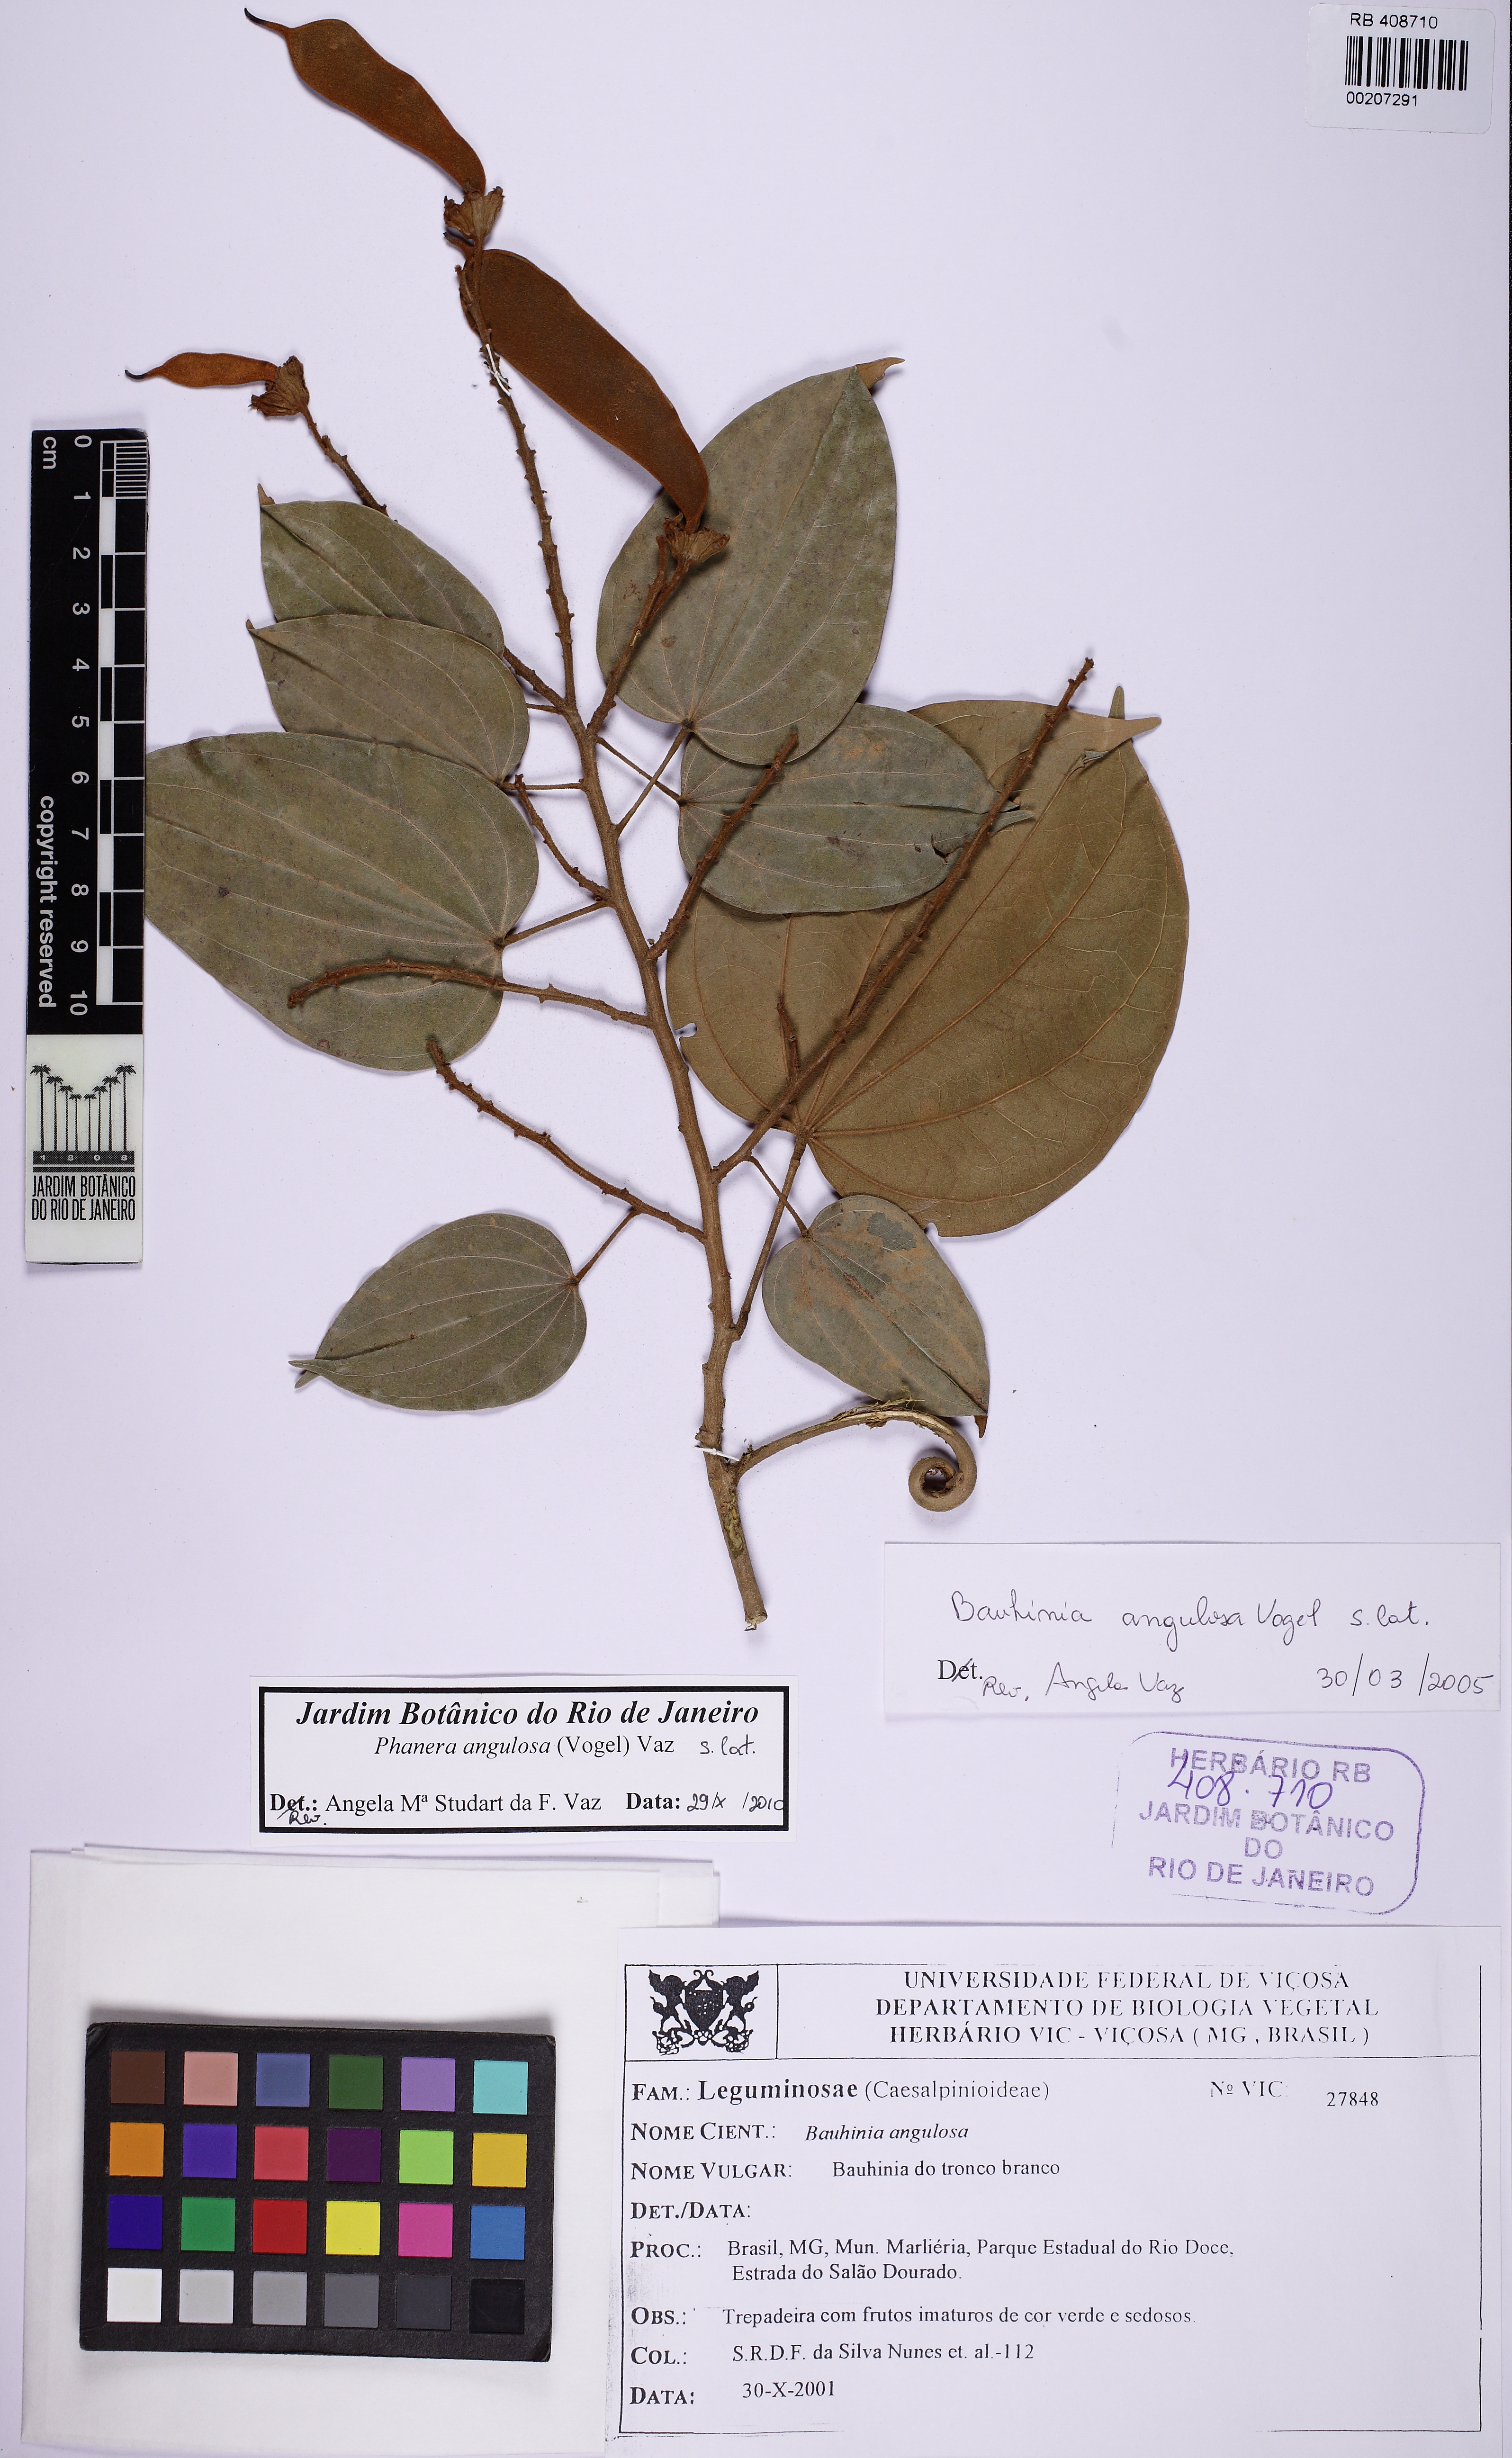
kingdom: Plantae
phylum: Tracheophyta
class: Magnoliopsida
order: Fabales
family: Fabaceae
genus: Schnella
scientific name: Schnella angulosa
